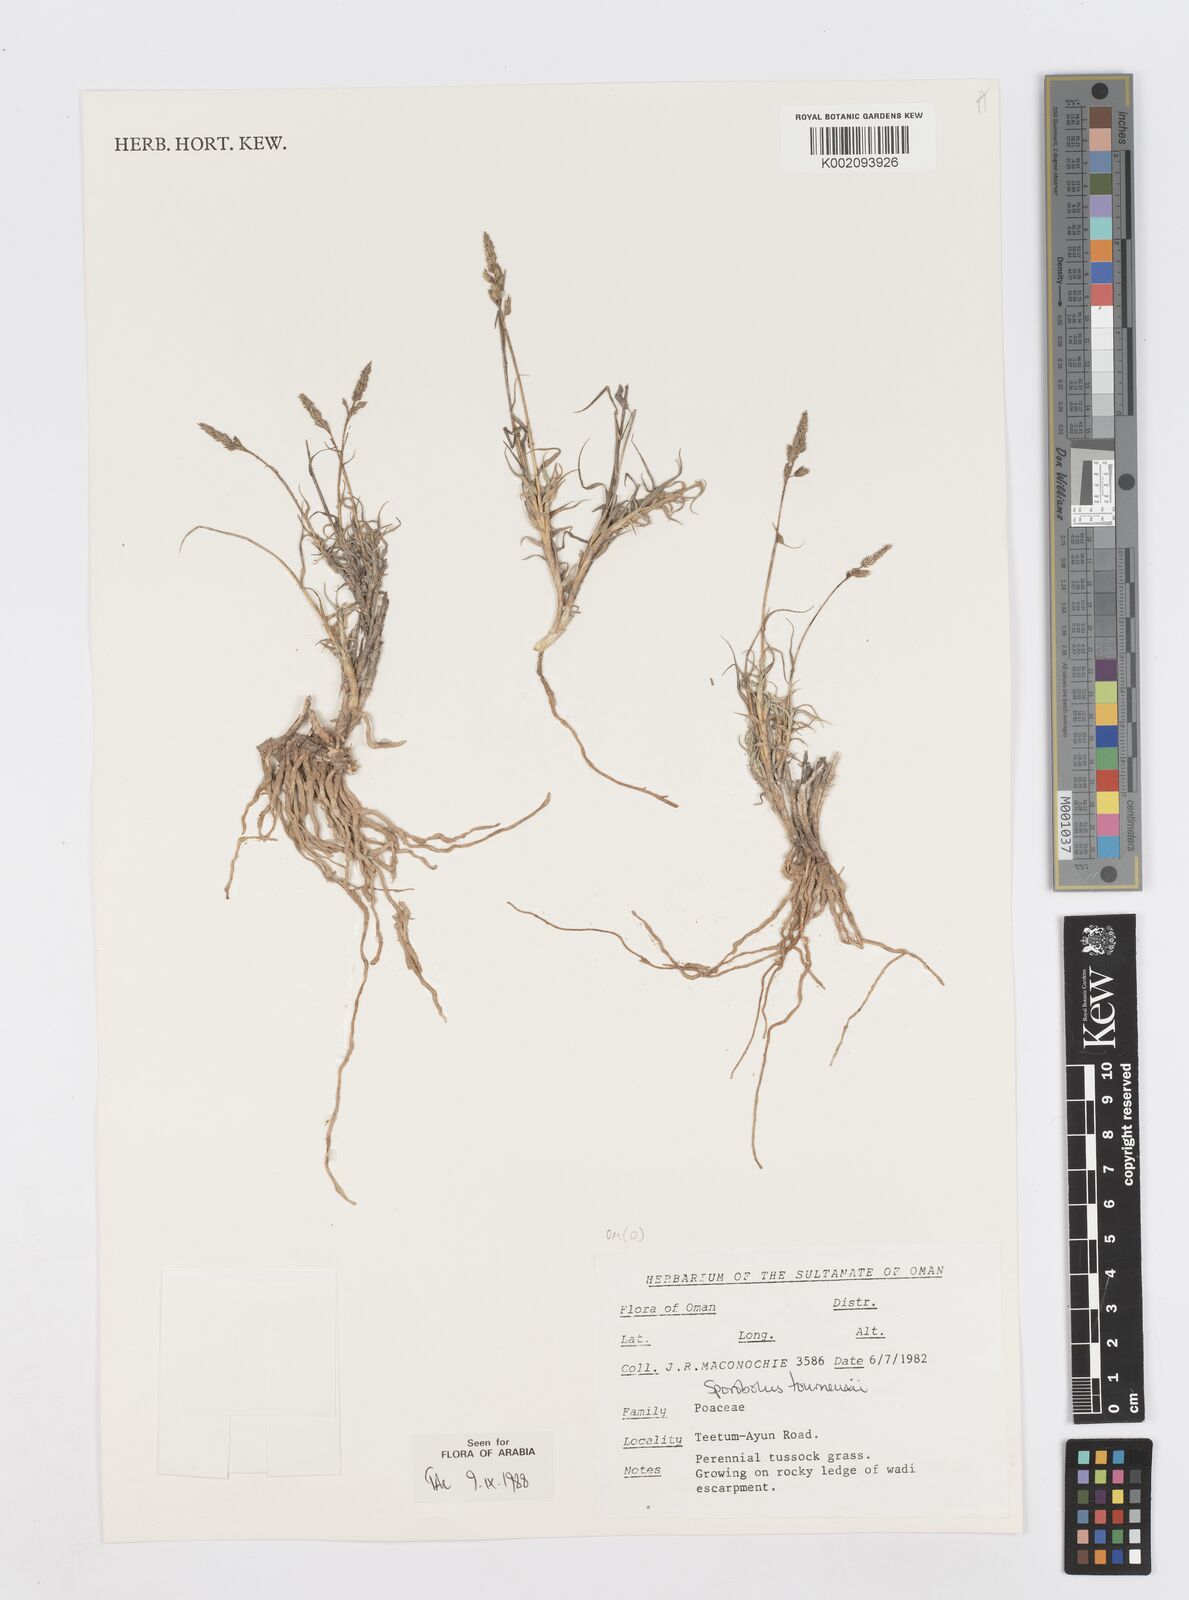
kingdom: Plantae
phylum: Tracheophyta
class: Liliopsida
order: Poales
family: Poaceae
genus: Sporobolus
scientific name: Sporobolus tourneuxii
